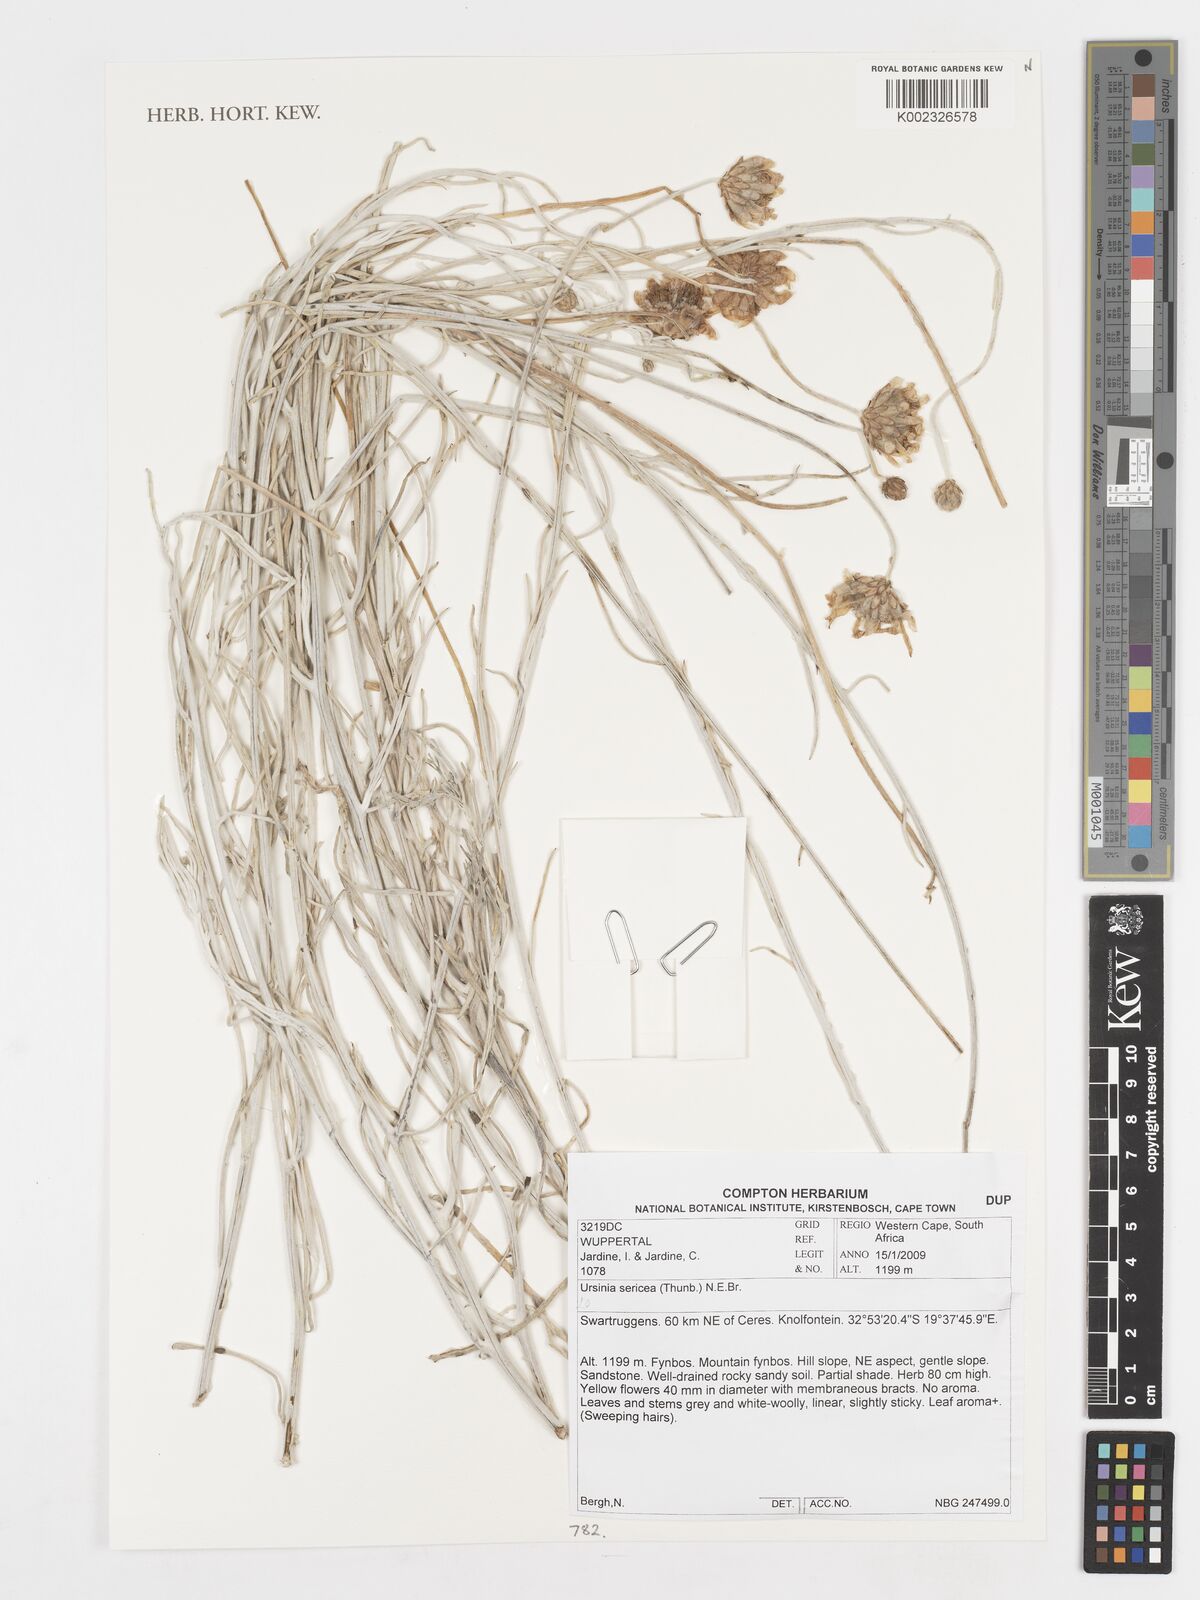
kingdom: Plantae
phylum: Tracheophyta
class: Magnoliopsida
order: Asterales
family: Asteraceae
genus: Ursinia
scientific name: Ursinia sericea
